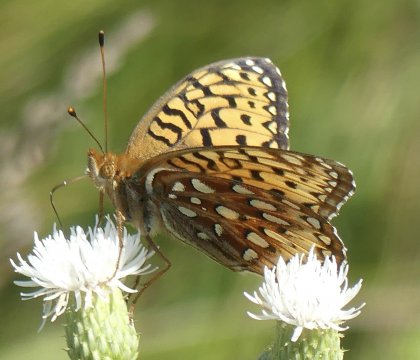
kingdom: Animalia
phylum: Arthropoda
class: Insecta
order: Lepidoptera
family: Nymphalidae
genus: Speyeria
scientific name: Speyeria aphrodite
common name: Aphrodite Fritillary
